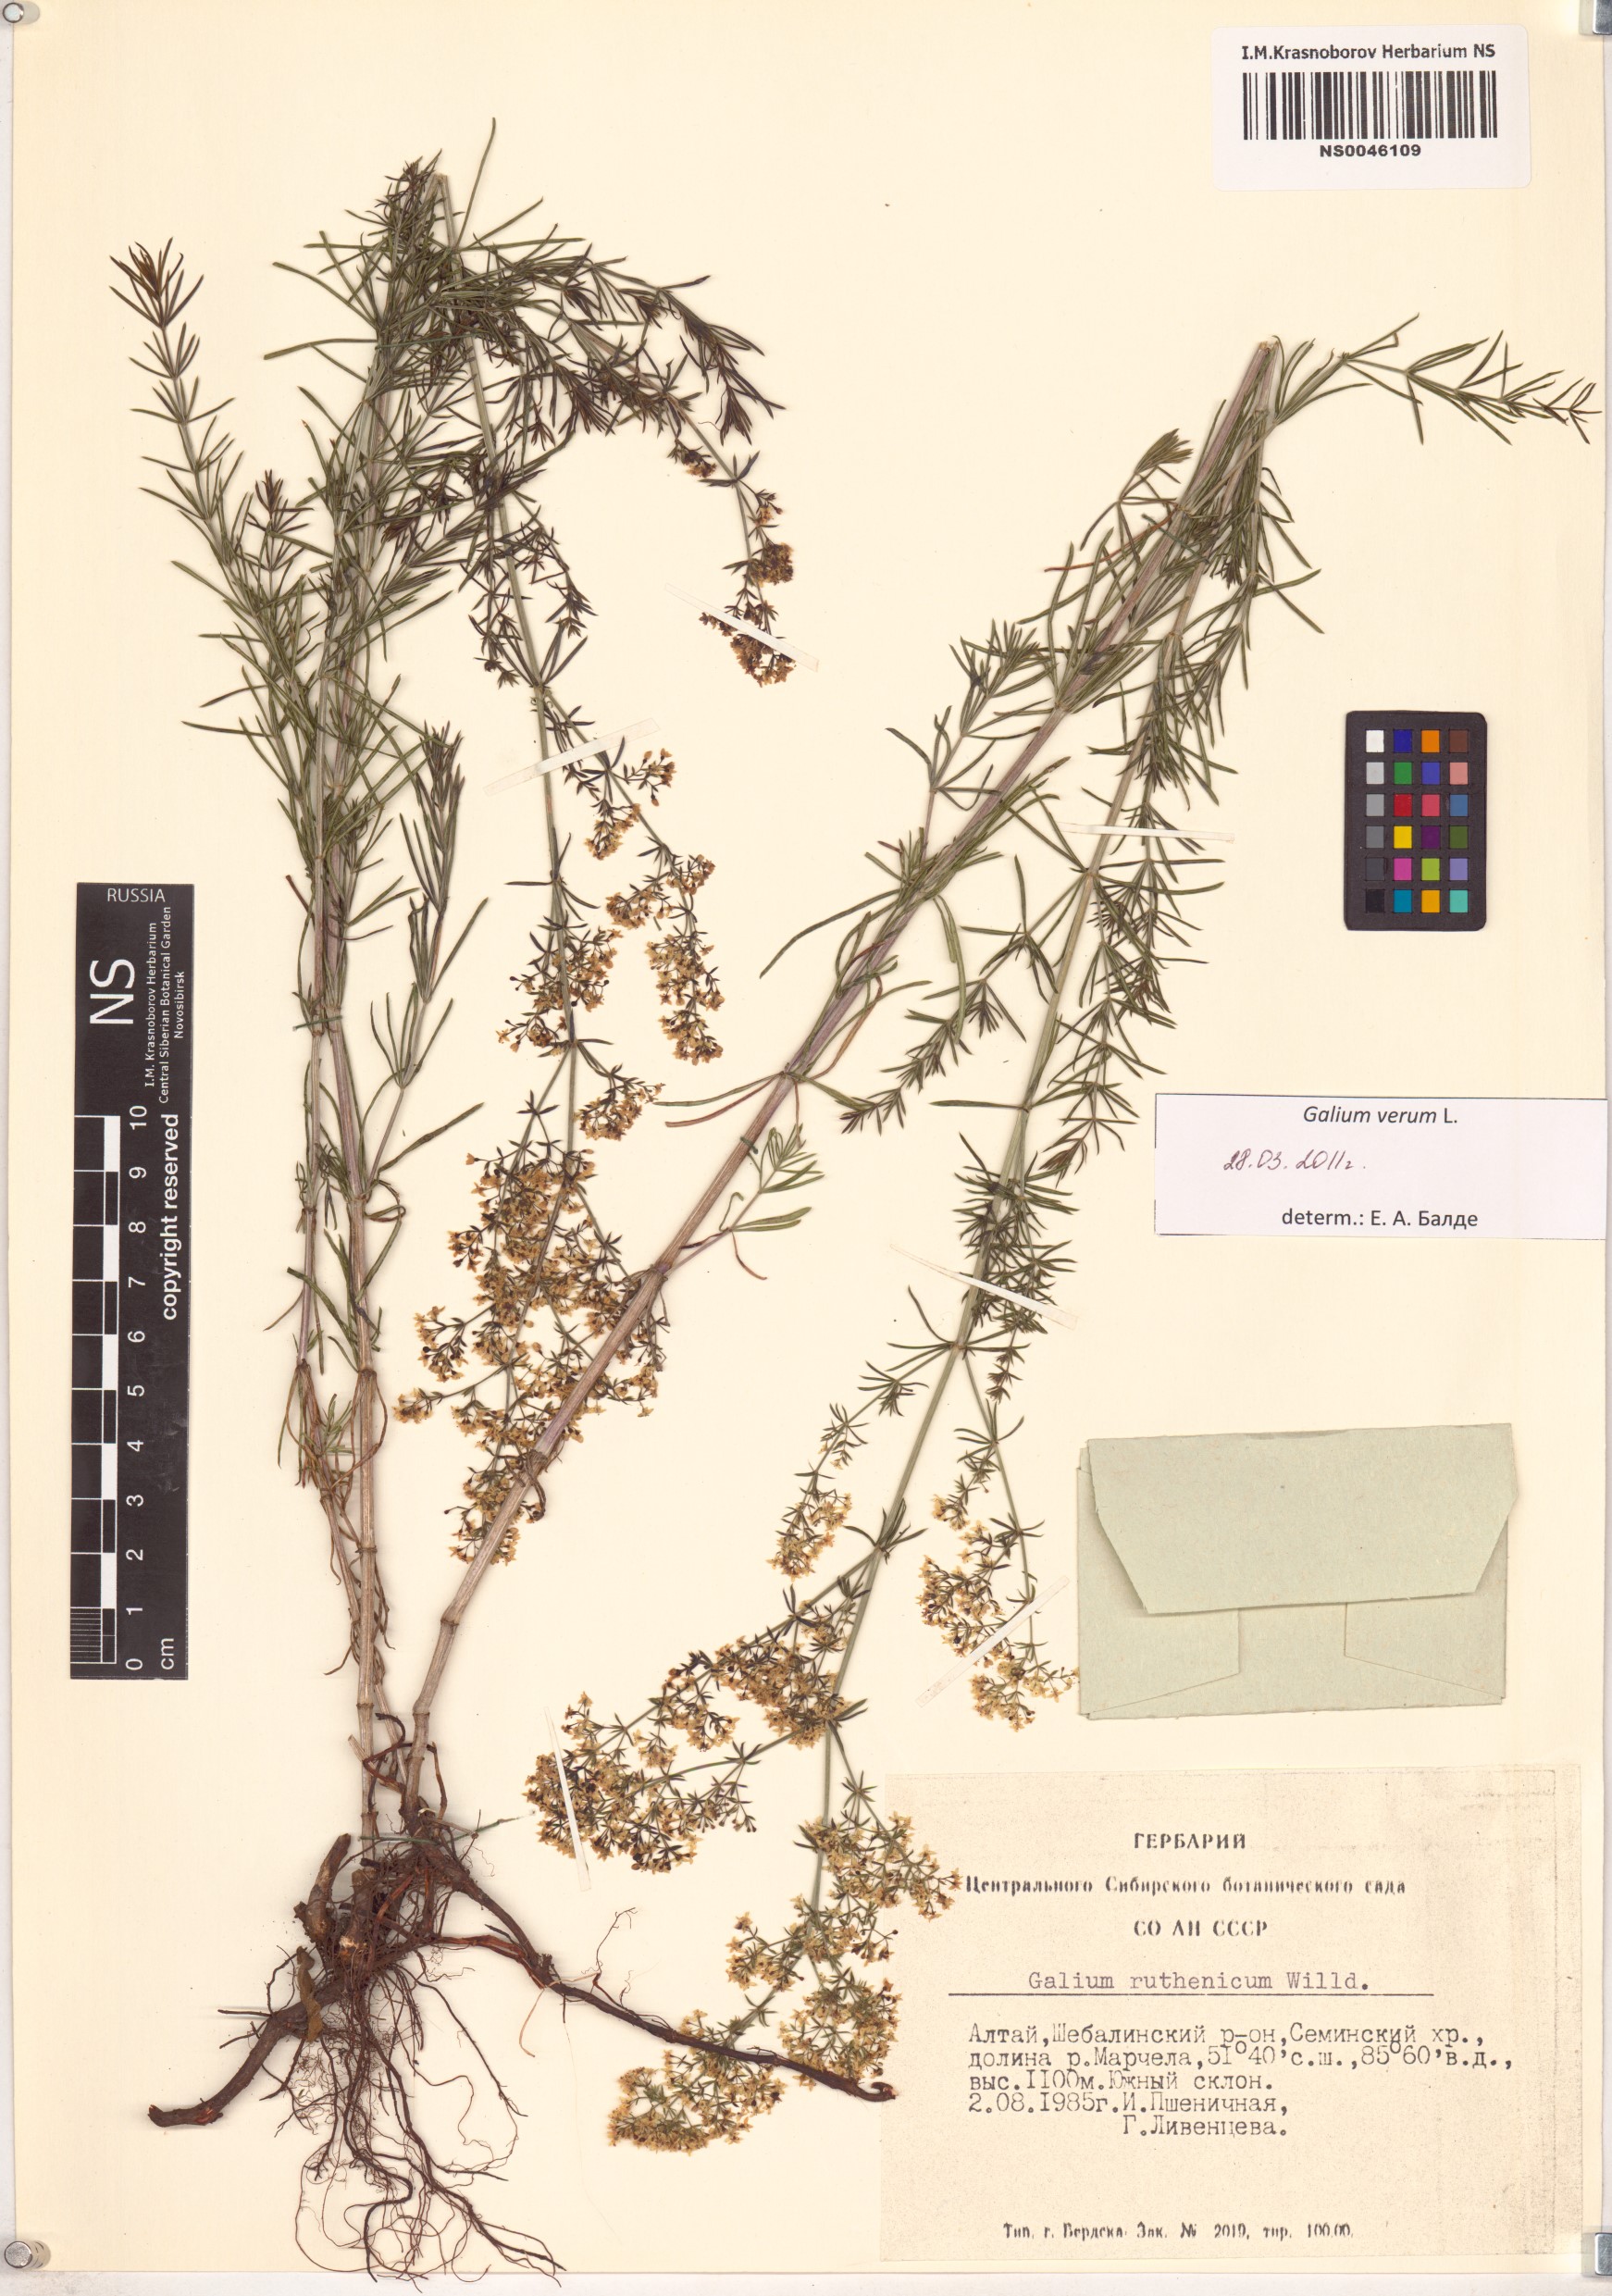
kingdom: Plantae
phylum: Tracheophyta
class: Magnoliopsida
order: Gentianales
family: Rubiaceae
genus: Galium
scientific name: Galium verum
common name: Lady's bedstraw
